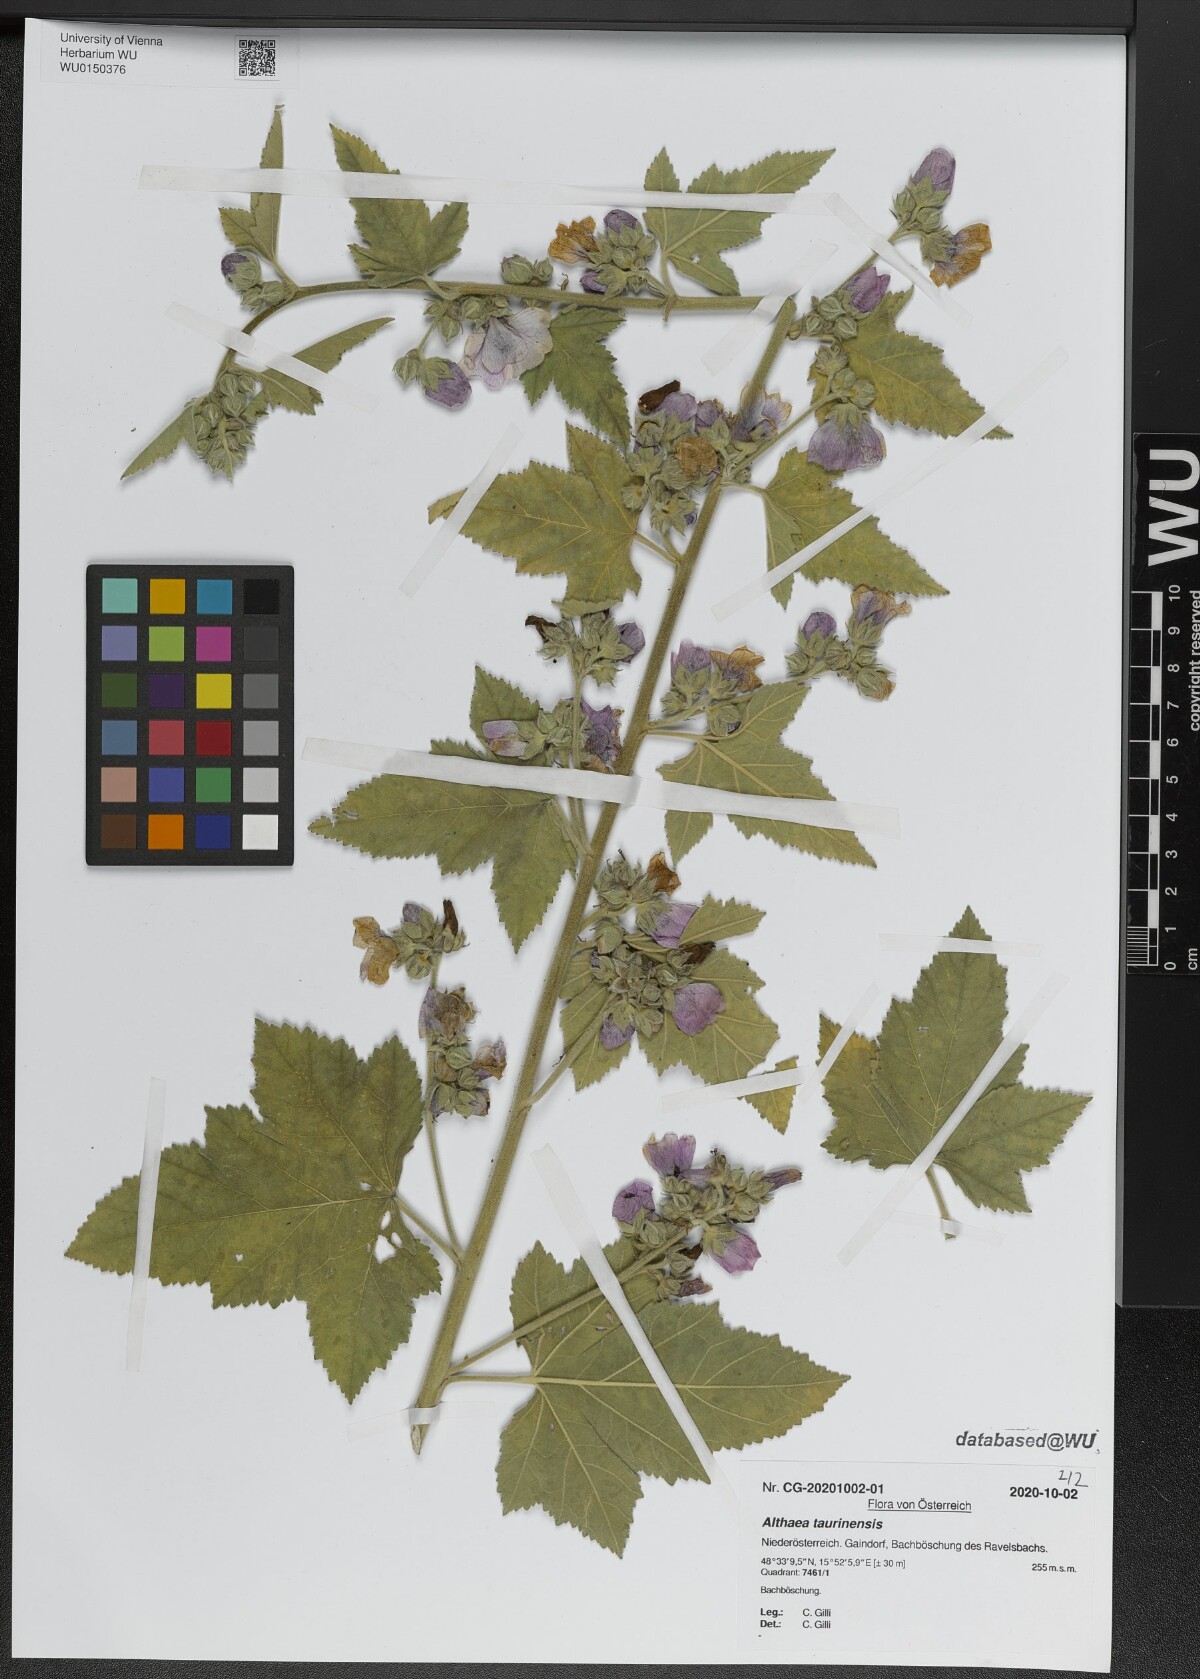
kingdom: Plantae
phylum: Tracheophyta
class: Magnoliopsida
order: Malvales
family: Malvaceae
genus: Althaea
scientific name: Althaea taurinensis
